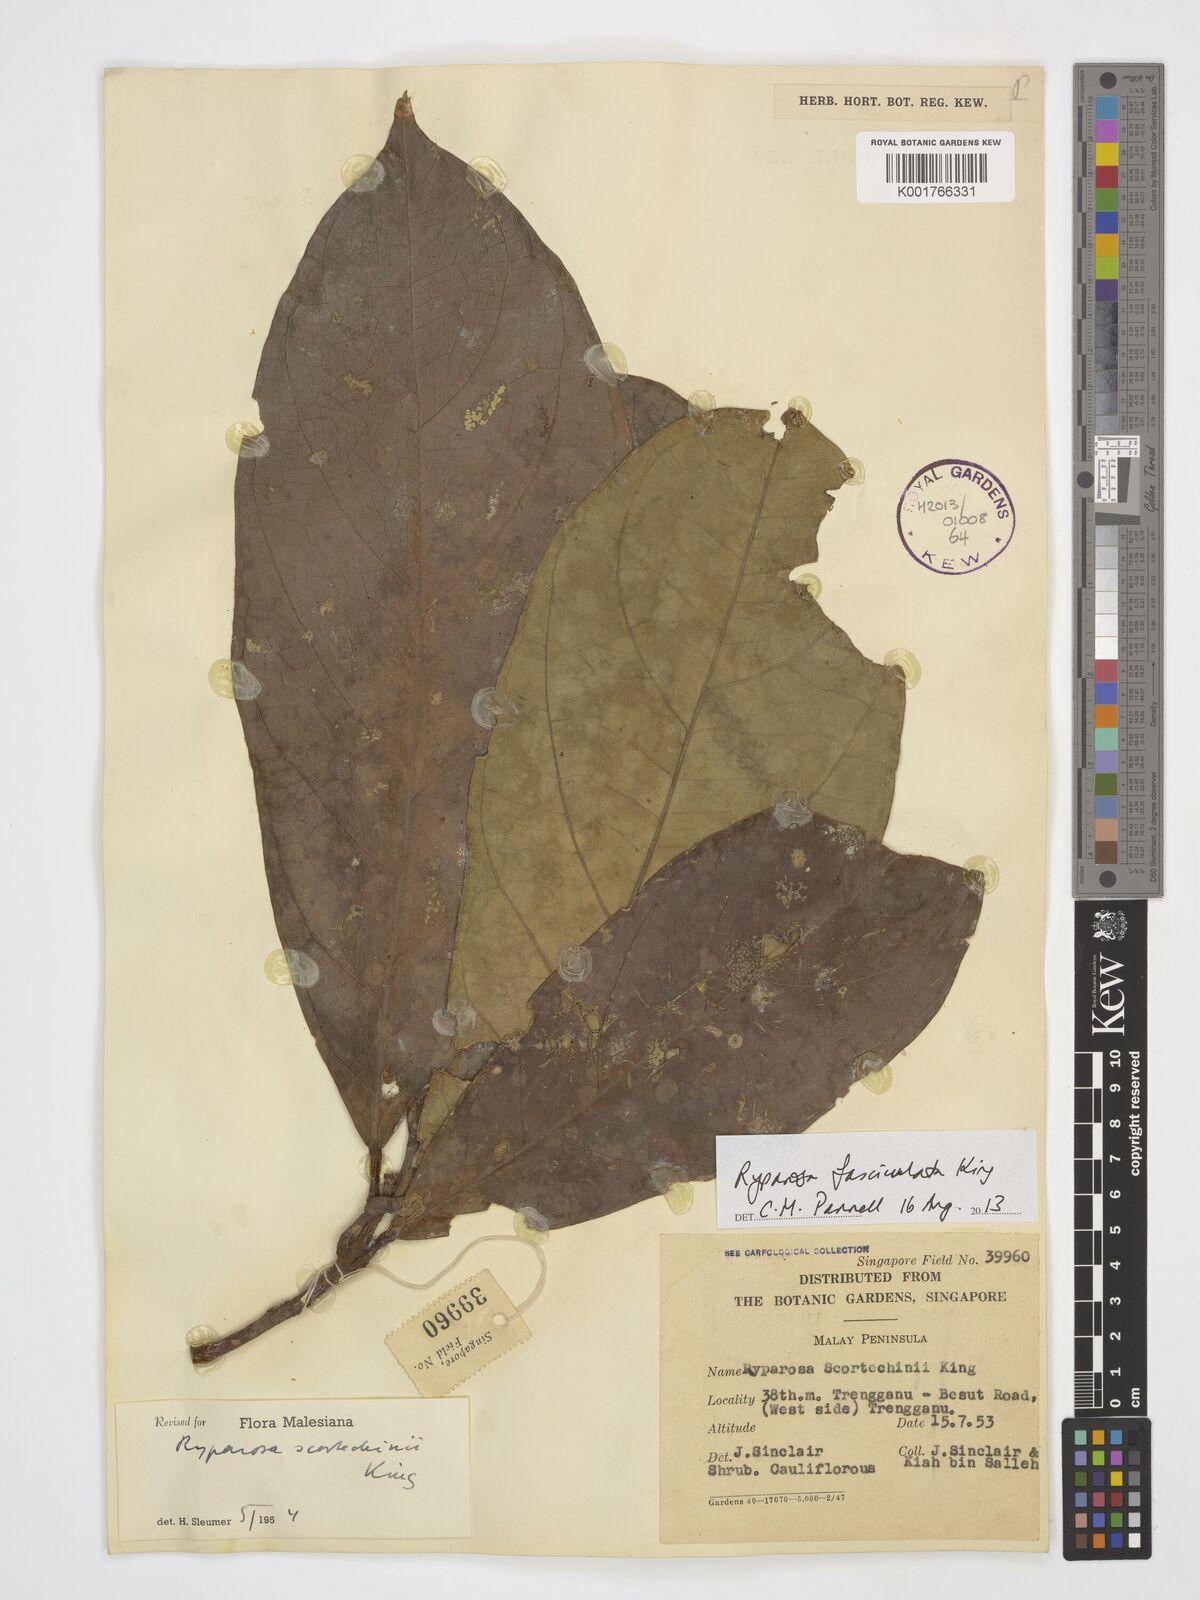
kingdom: Plantae
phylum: Tracheophyta
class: Magnoliopsida
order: Malpighiales
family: Achariaceae
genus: Ryparosa
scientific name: Ryparosa fasciculata
